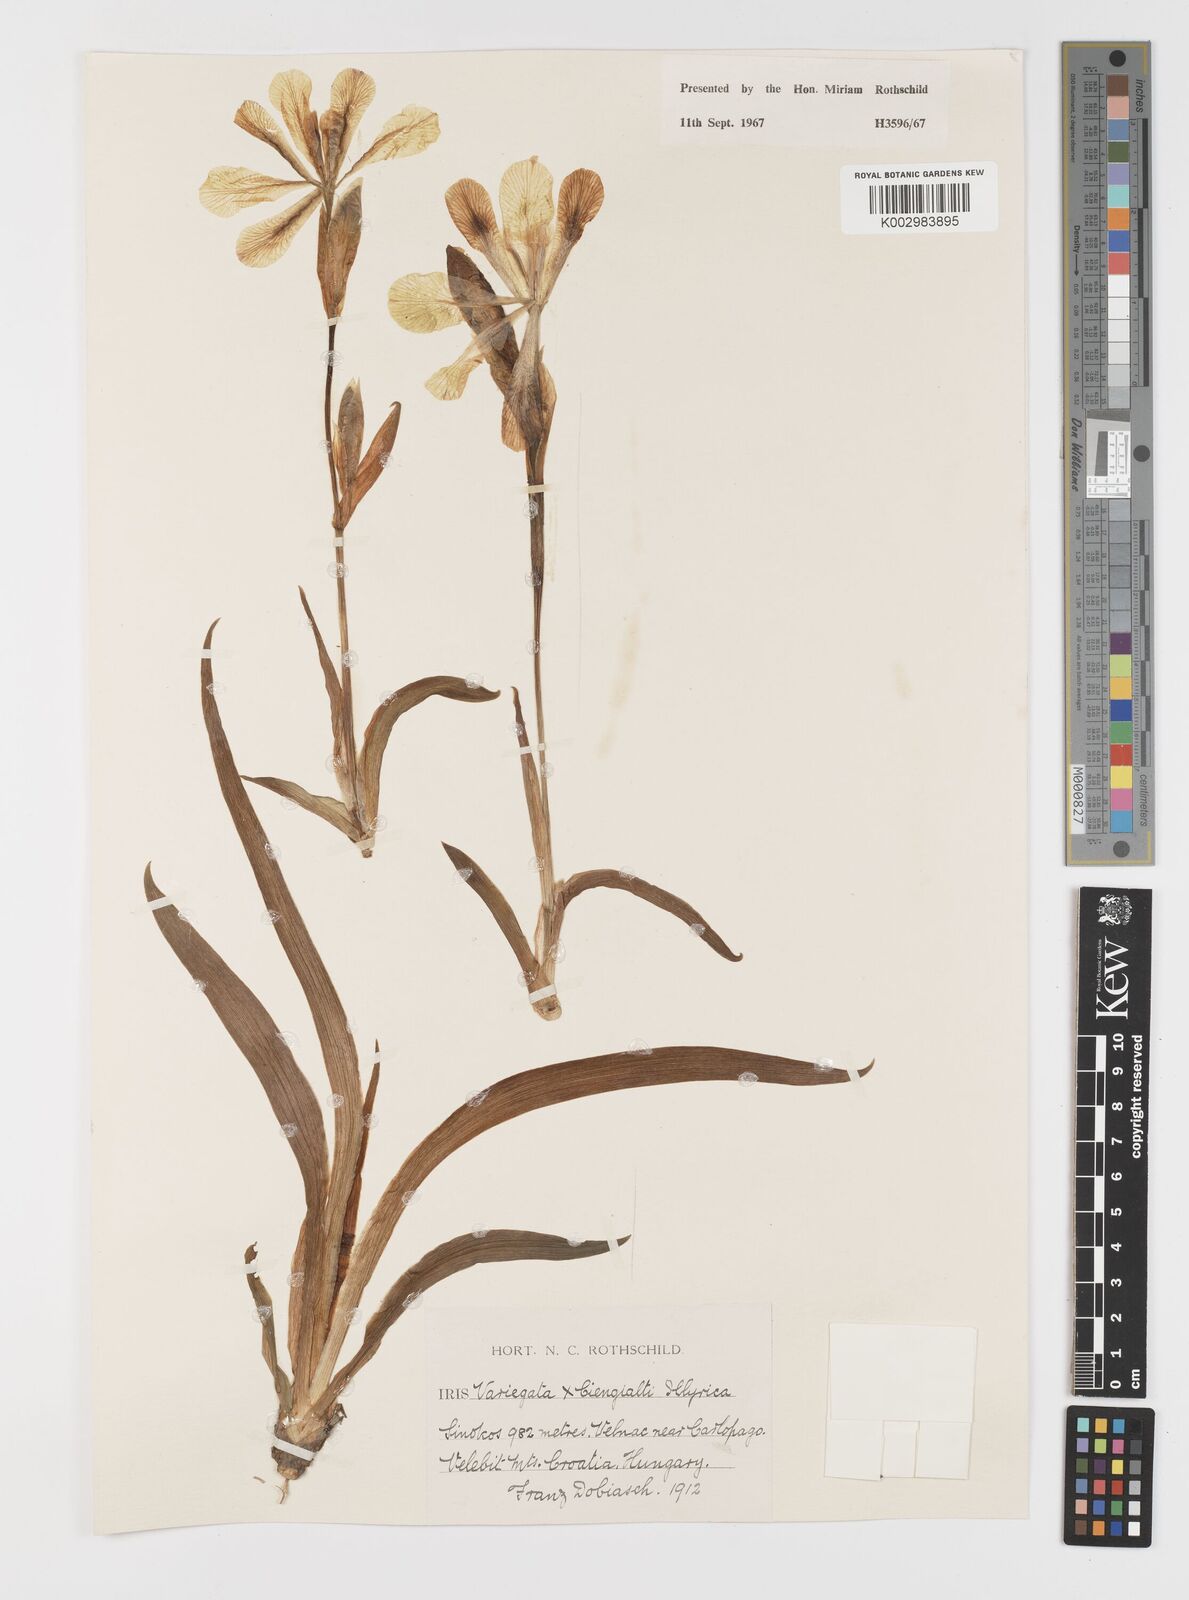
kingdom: Plantae
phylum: Tracheophyta
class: Liliopsida
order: Asparagales
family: Iridaceae
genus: Iris
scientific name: Iris germanica
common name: German iris
